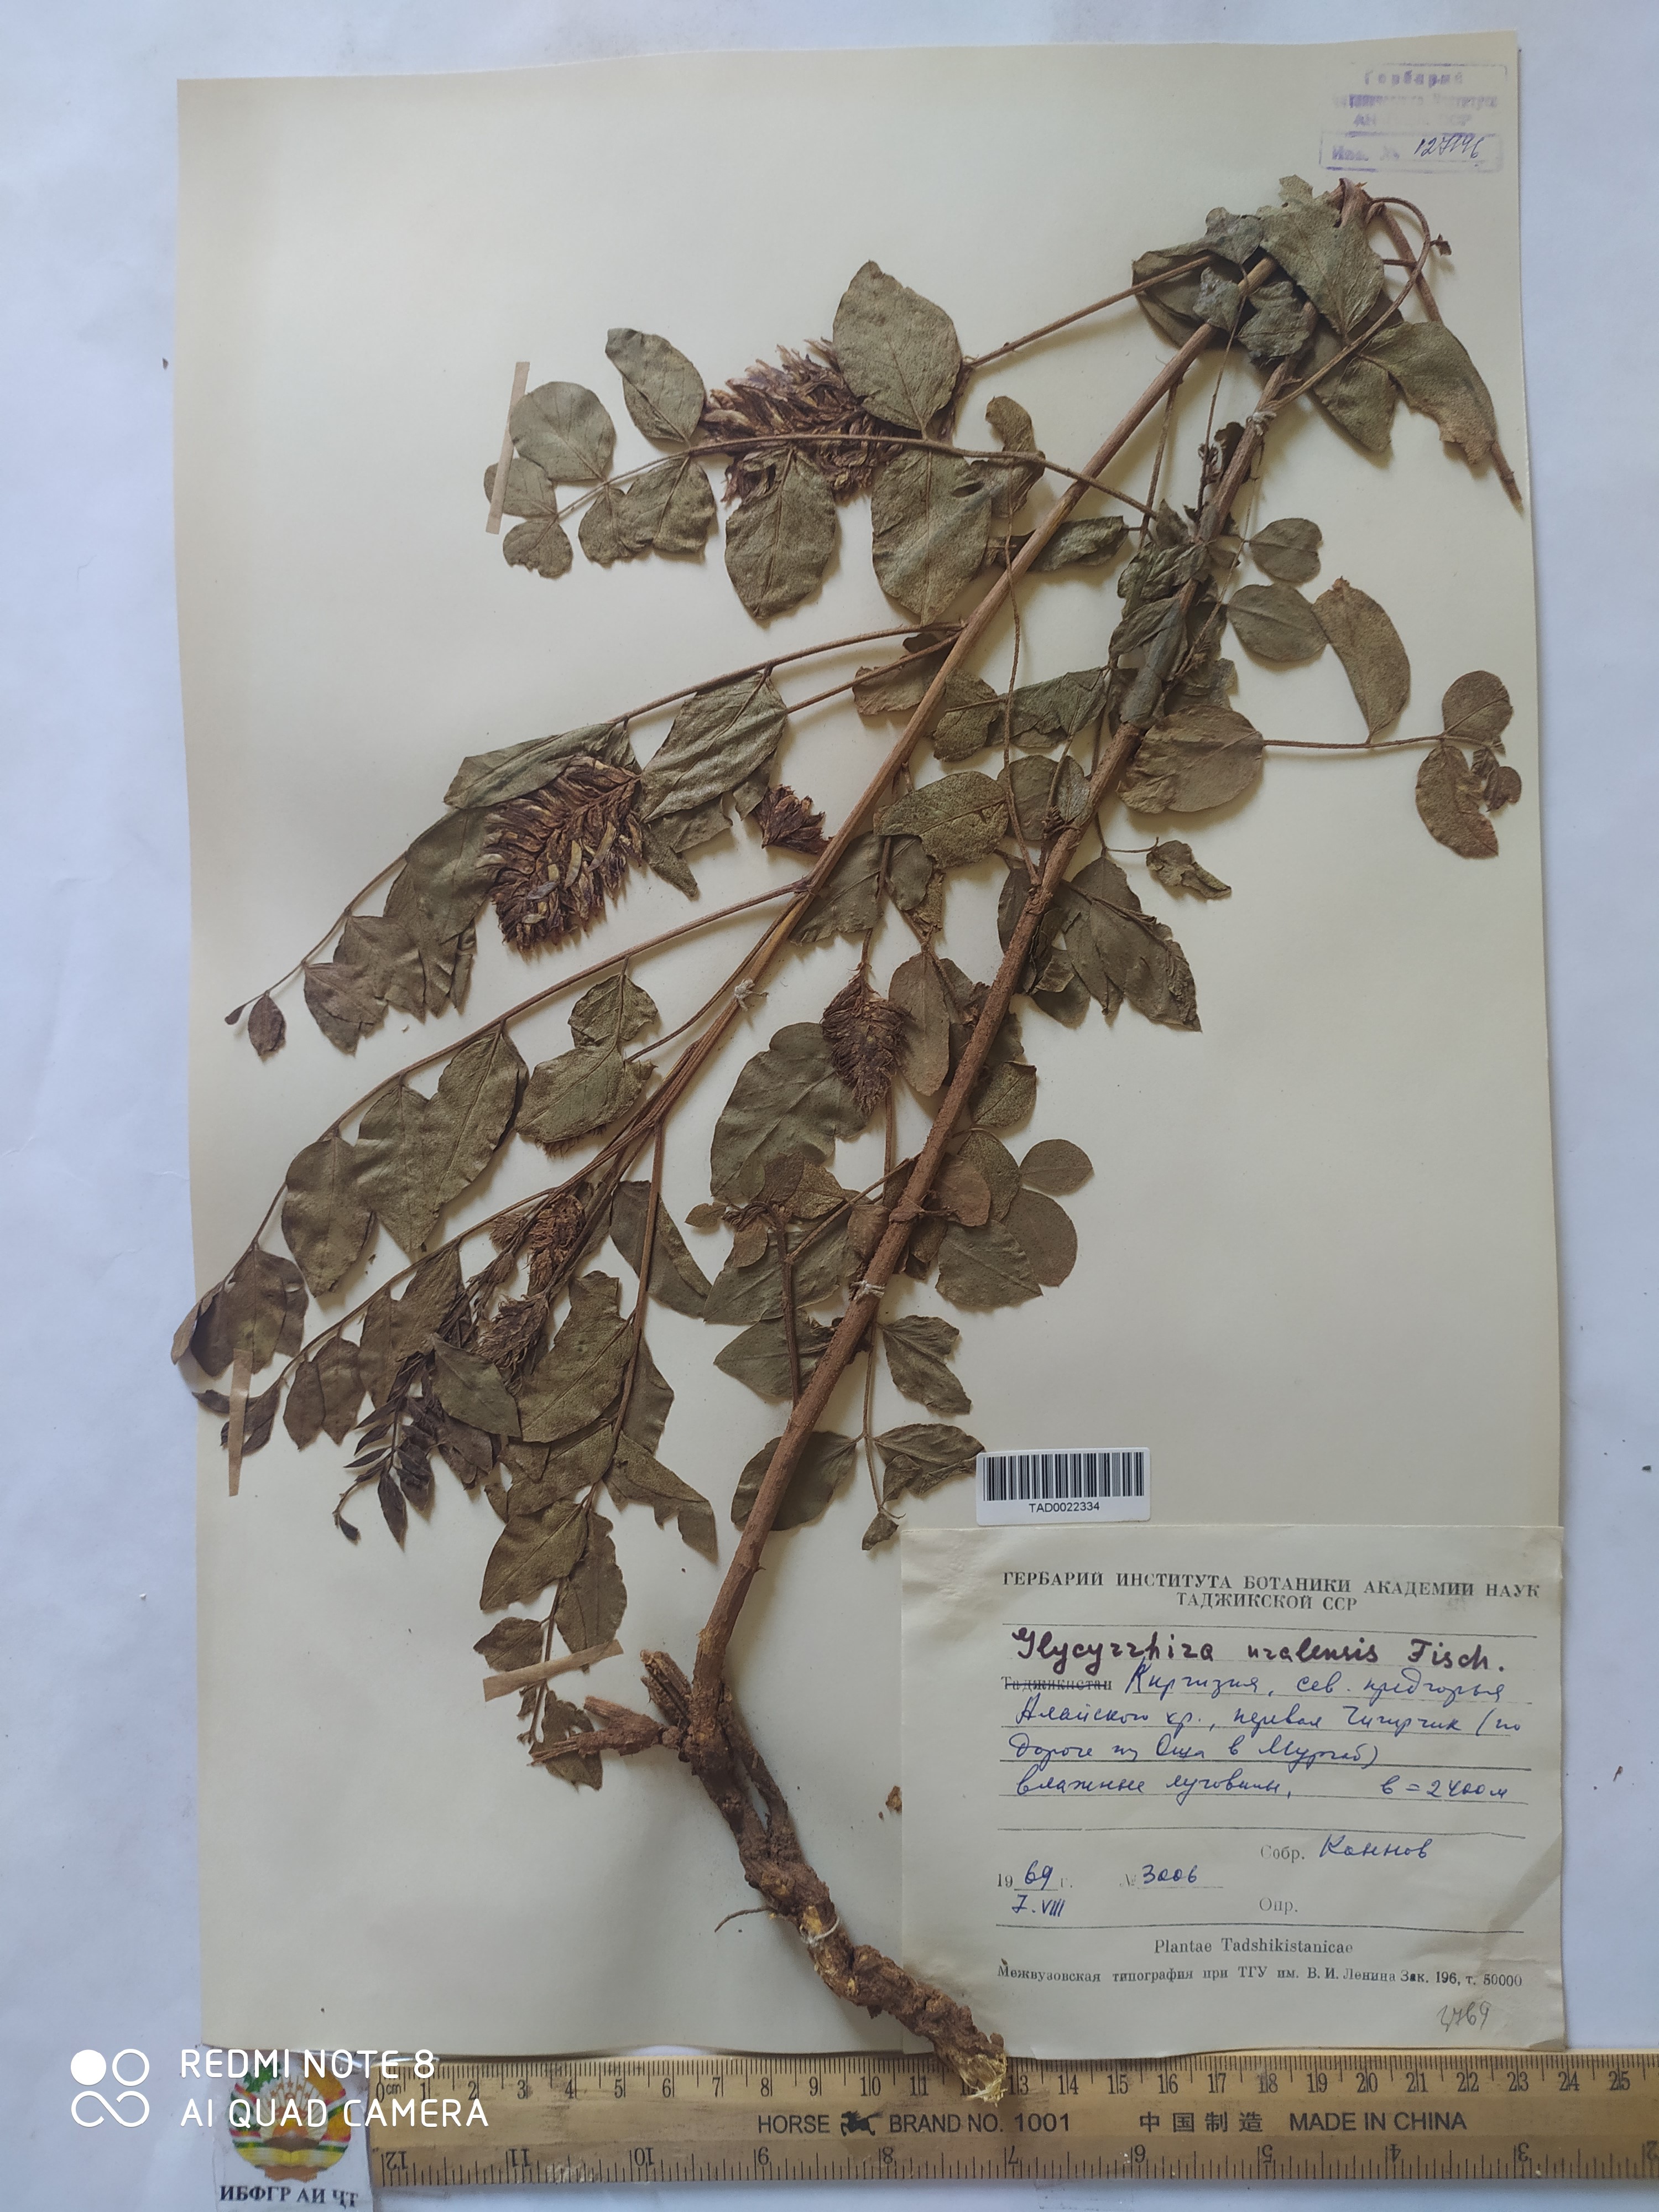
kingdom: Plantae
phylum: Tracheophyta
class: Magnoliopsida
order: Fabales
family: Fabaceae
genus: Glycyrrhiza
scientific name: Glycyrrhiza uralensis
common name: Chinese licorice
